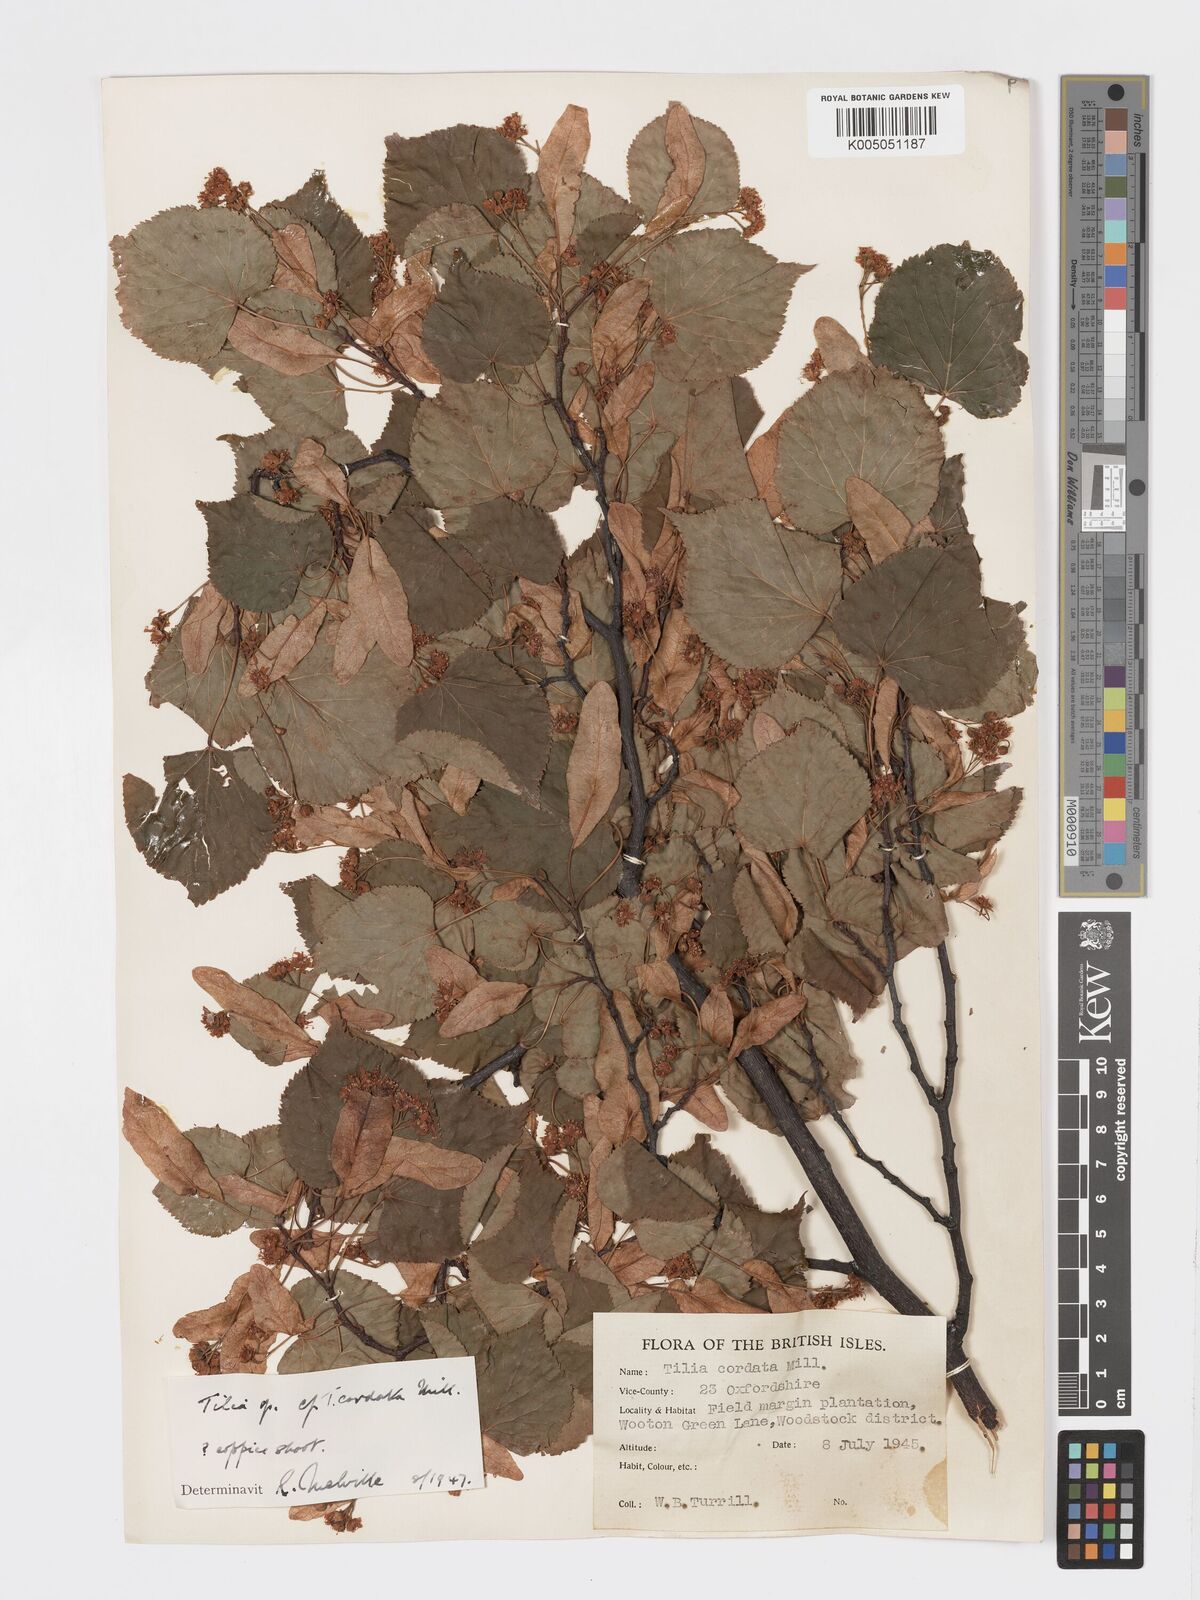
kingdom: Plantae
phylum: Tracheophyta
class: Magnoliopsida
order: Malvales
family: Malvaceae
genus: Tilia
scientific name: Tilia cordata
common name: Small-leaved lime
